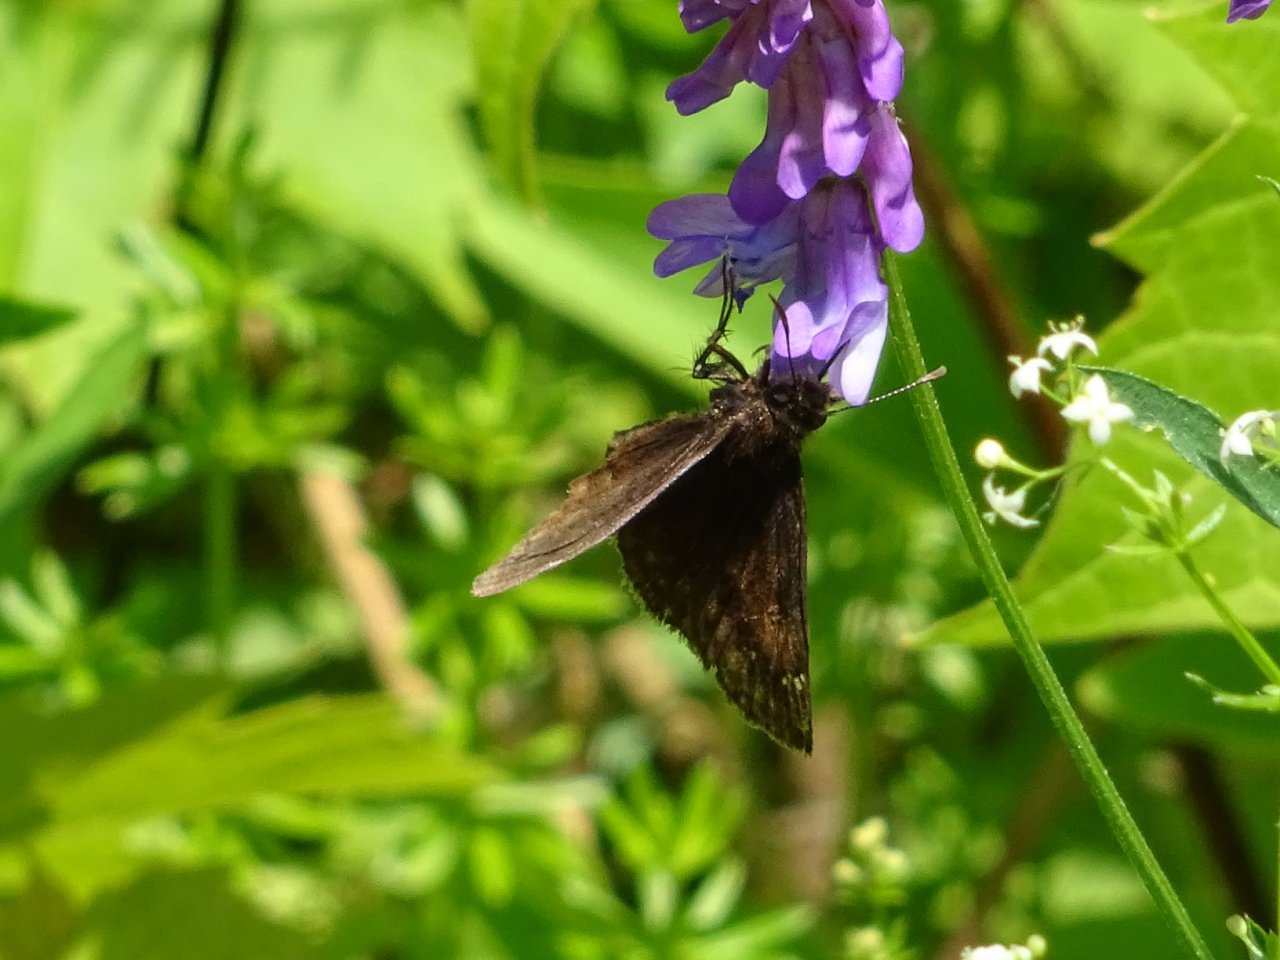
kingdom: Animalia
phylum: Arthropoda
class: Insecta
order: Lepidoptera
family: Hesperiidae
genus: Gesta
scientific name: Gesta
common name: Wild Indigo Duskywing
